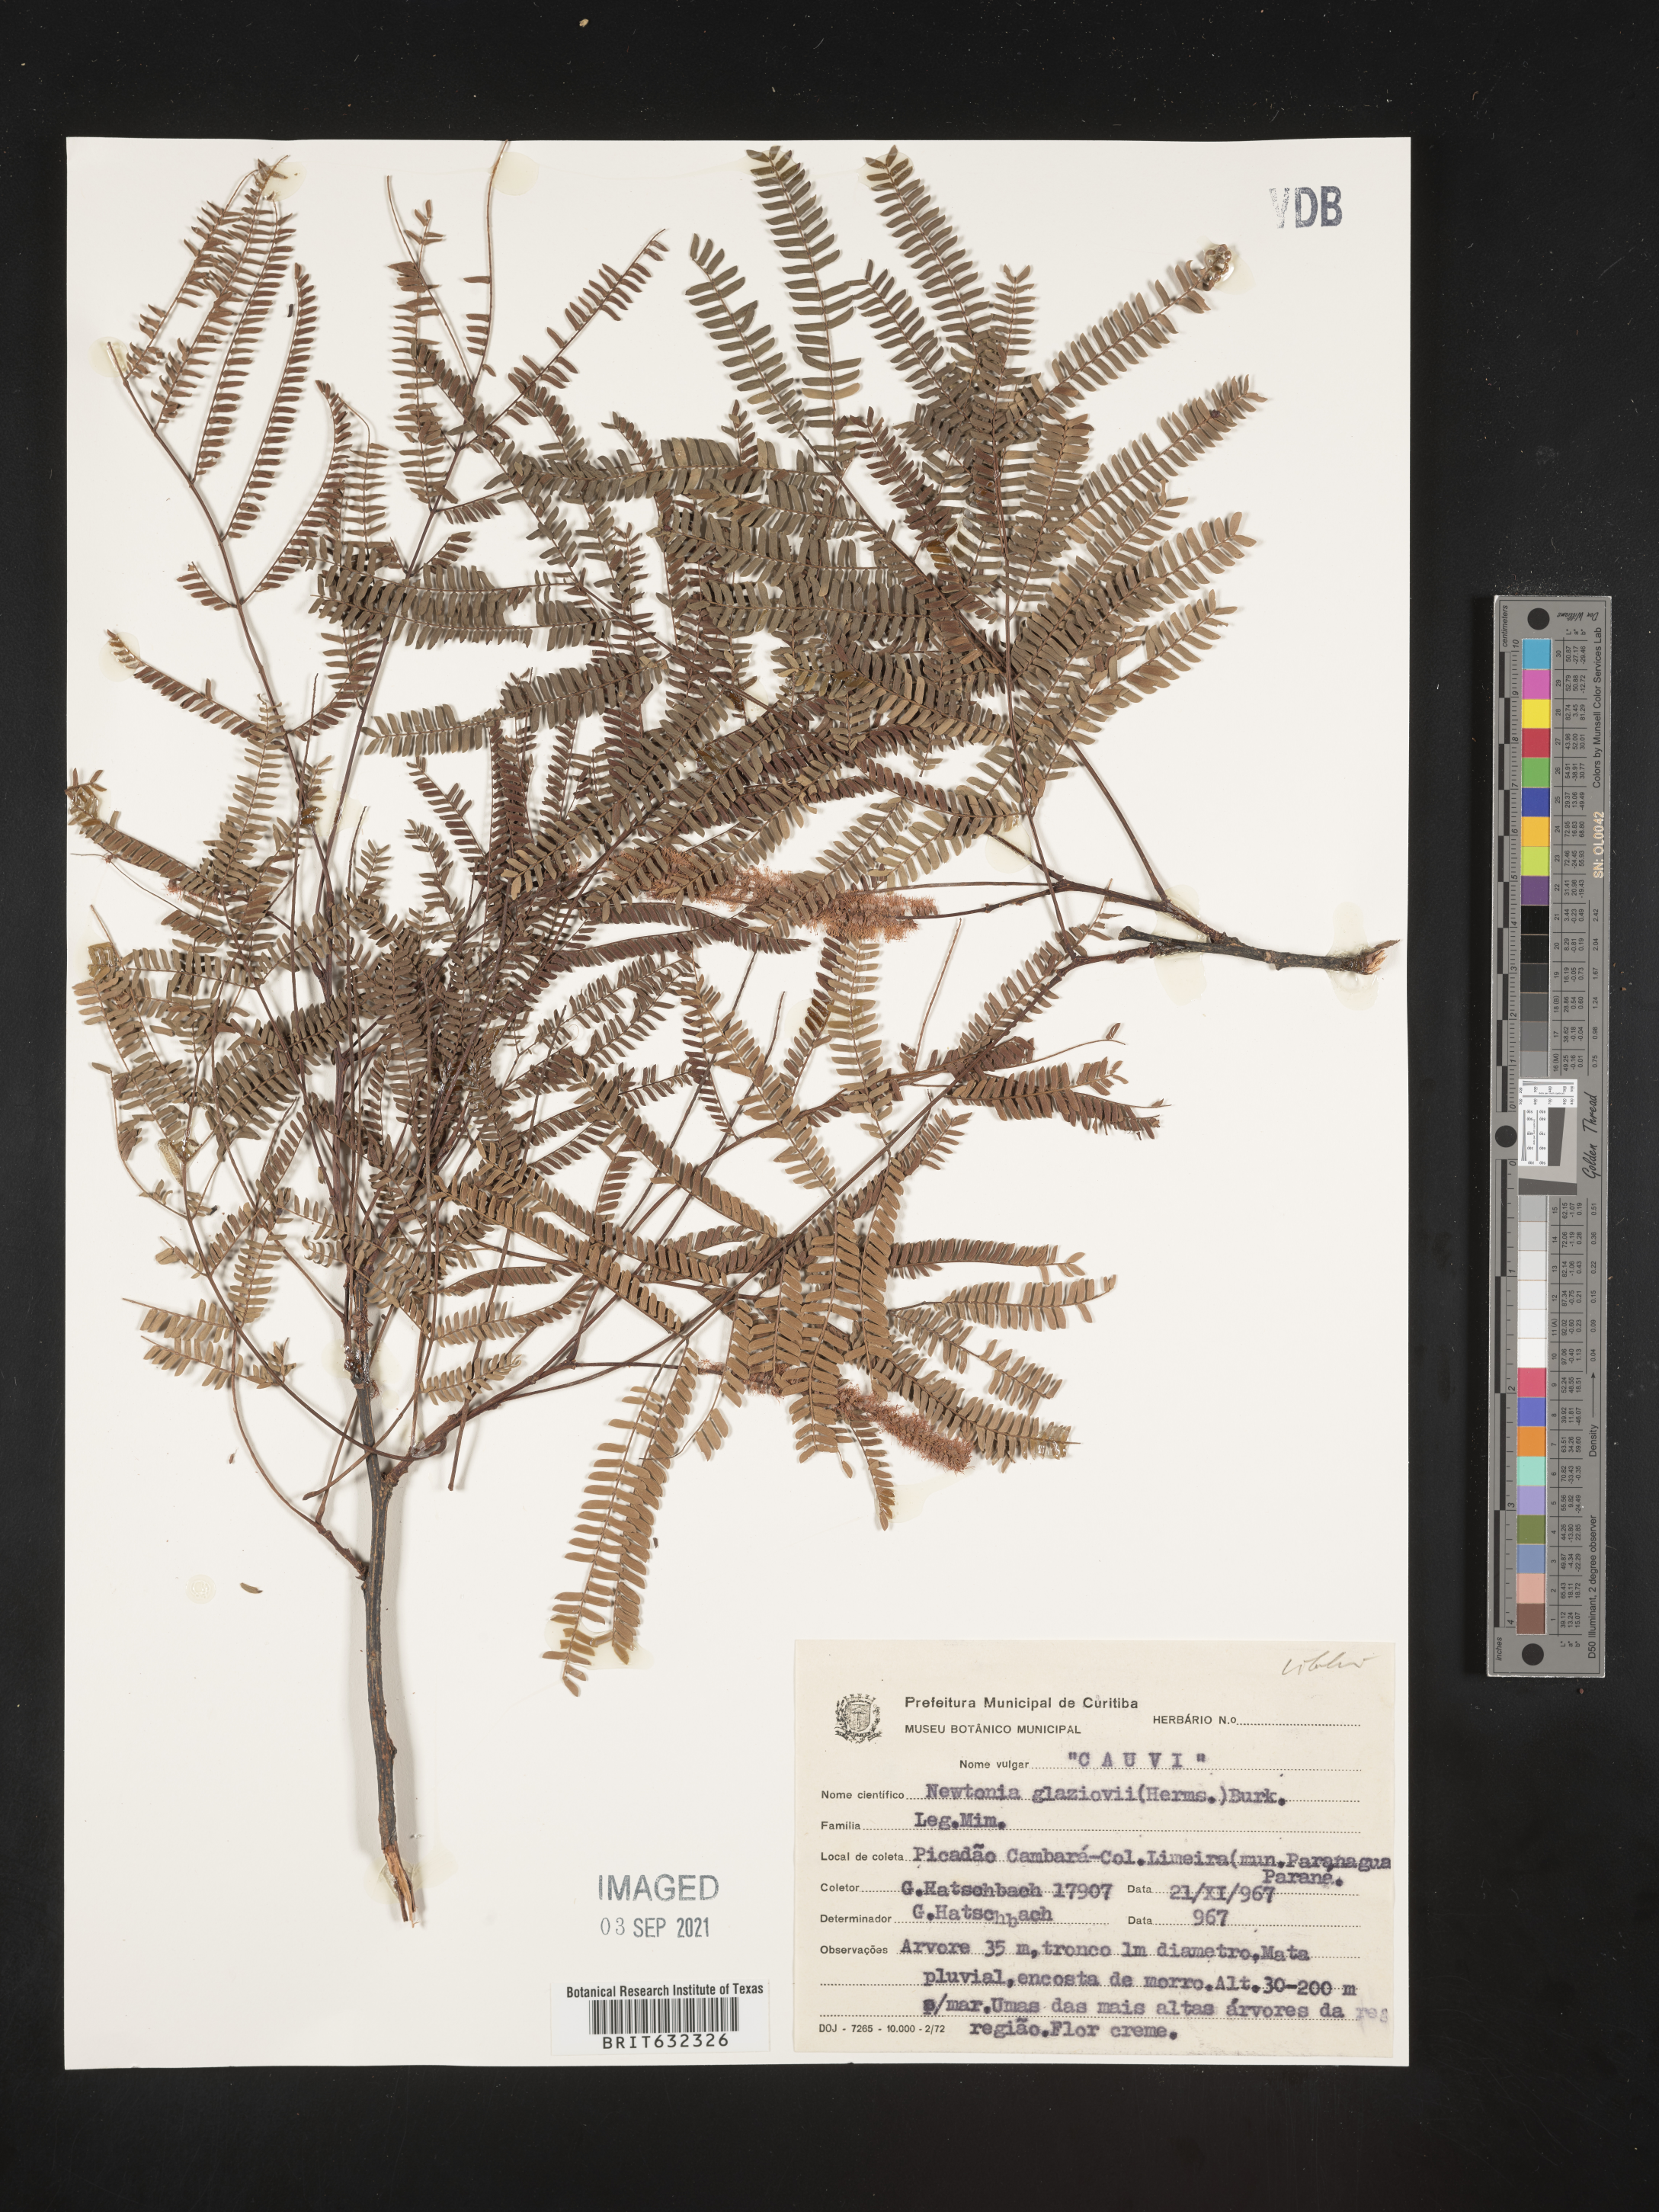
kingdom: Plantae
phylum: Tracheophyta
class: Magnoliopsida
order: Fabales
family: Fabaceae
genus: Newtonia
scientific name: Newtonia
